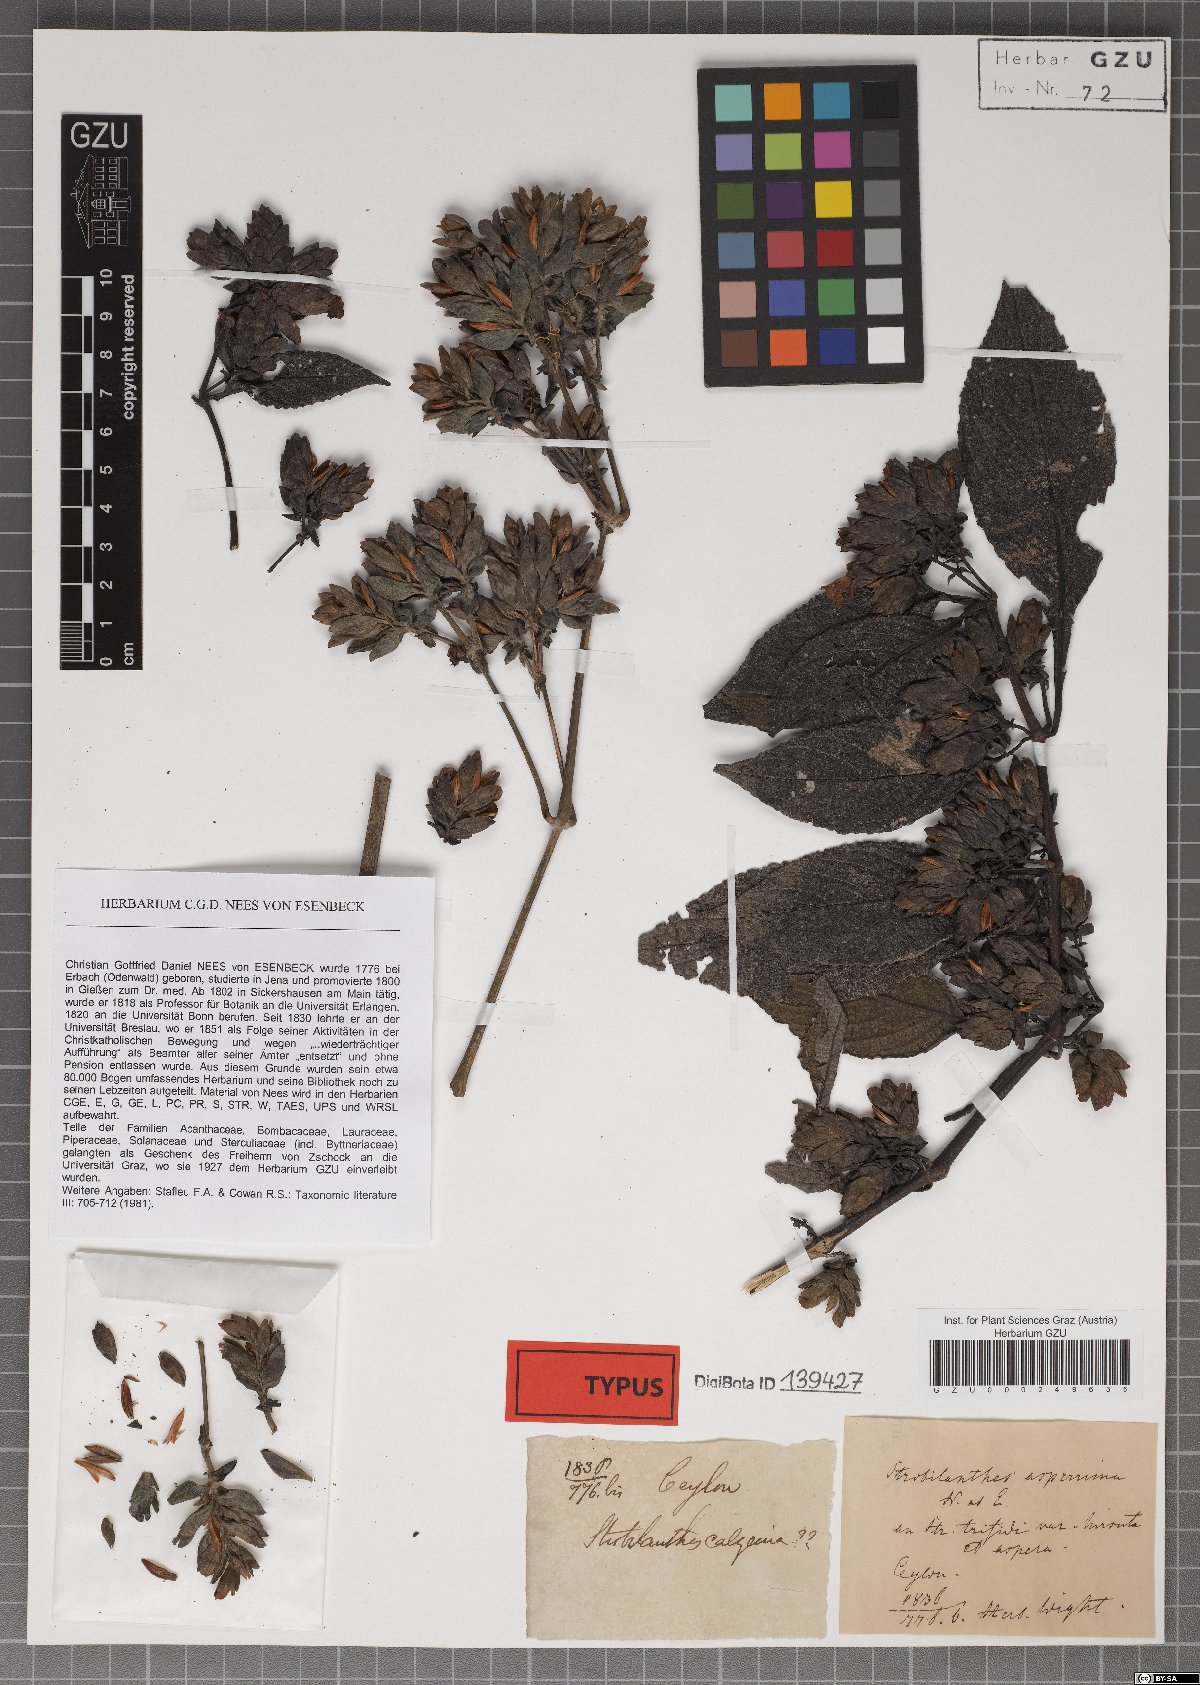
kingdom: Plantae
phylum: Tracheophyta
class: Magnoliopsida
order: Lamiales
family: Acanthaceae
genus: Strobilanthes
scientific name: Strobilanthes heyneana
